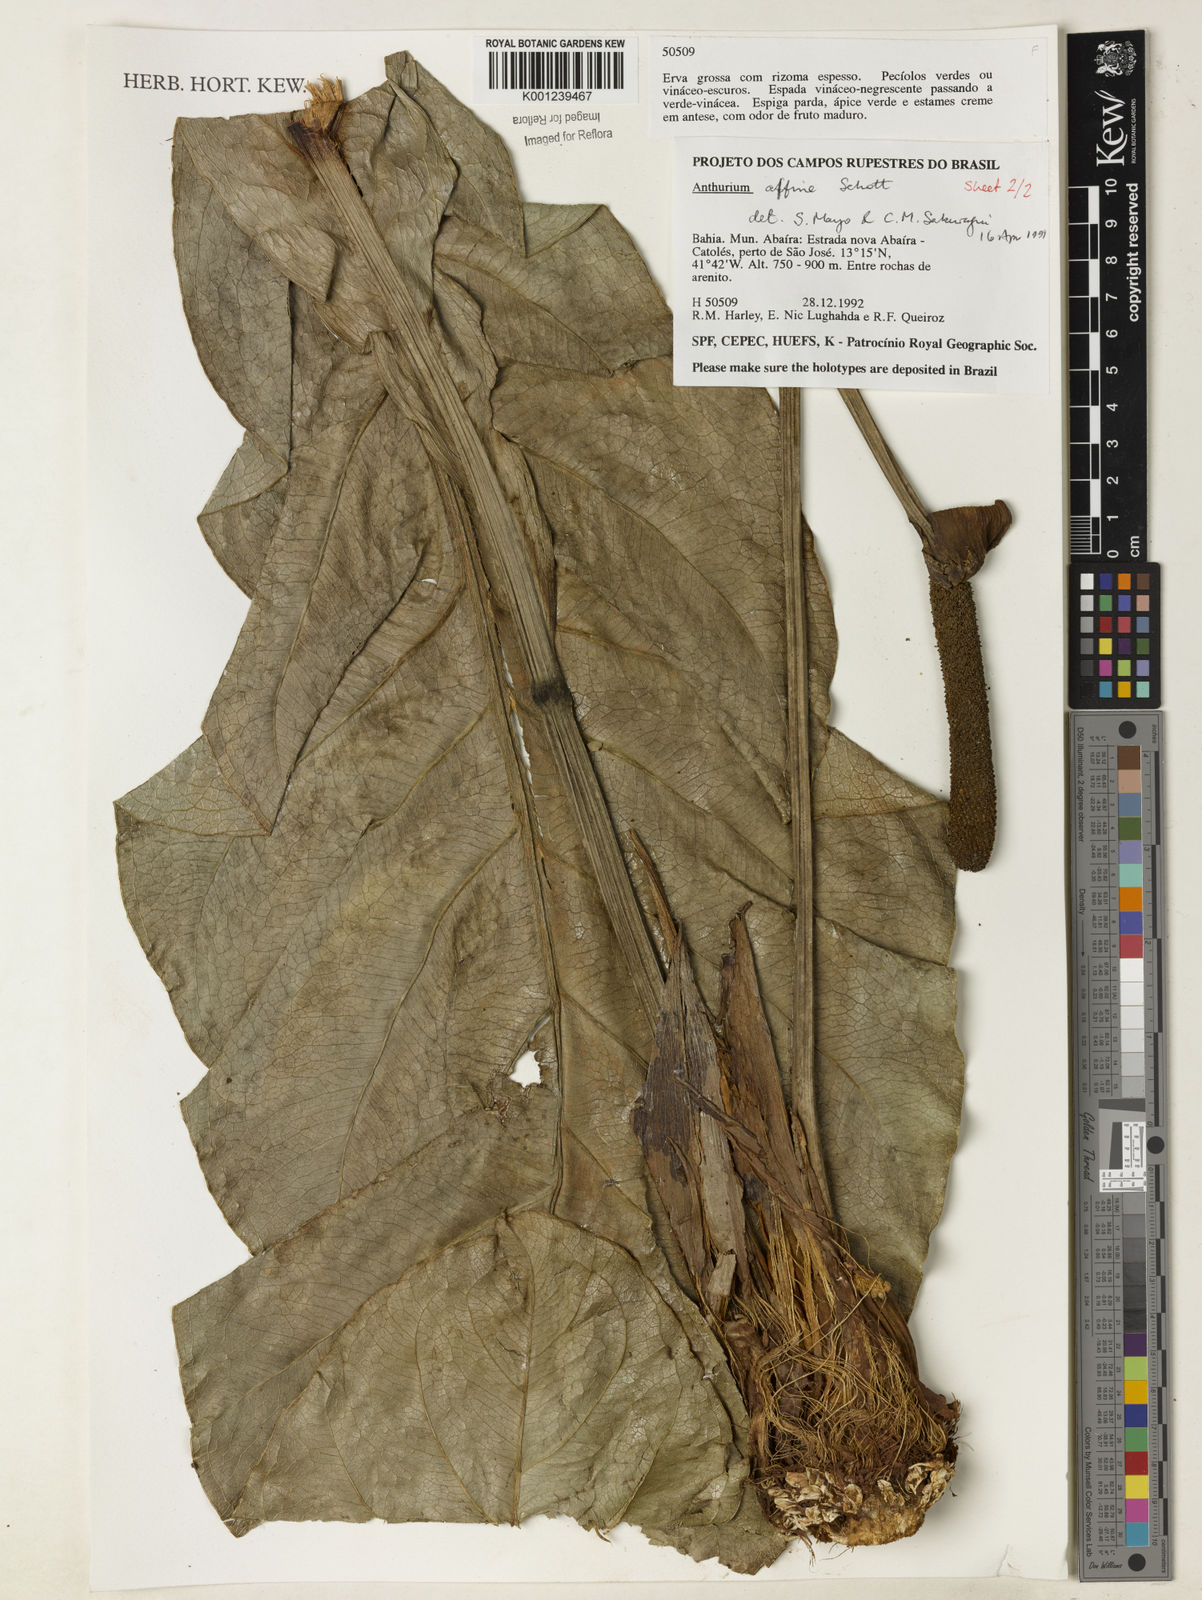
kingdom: Plantae
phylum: Tracheophyta
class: Liliopsida
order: Alismatales
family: Araceae
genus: Anthurium
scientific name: Anthurium affine
